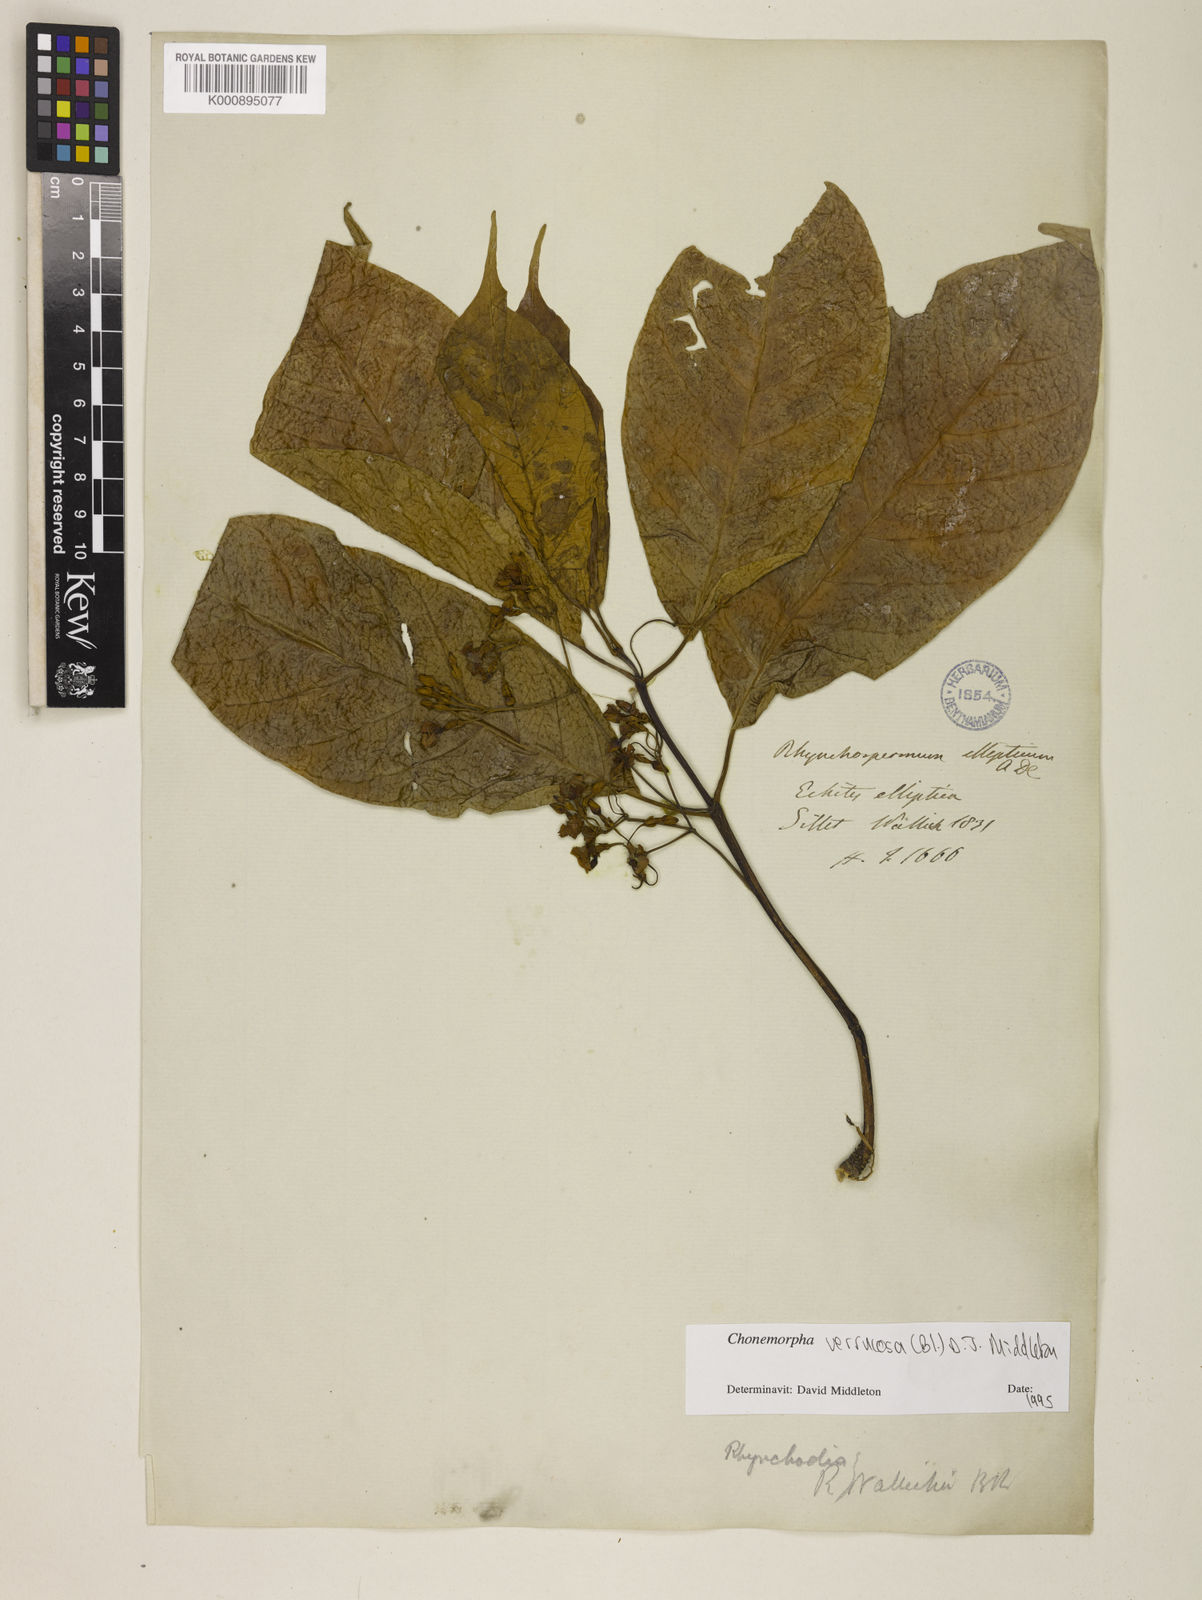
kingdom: Plantae
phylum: Tracheophyta
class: Magnoliopsida
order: Gentianales
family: Apocynaceae
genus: Chonemorpha
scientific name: Chonemorpha verrucosa
